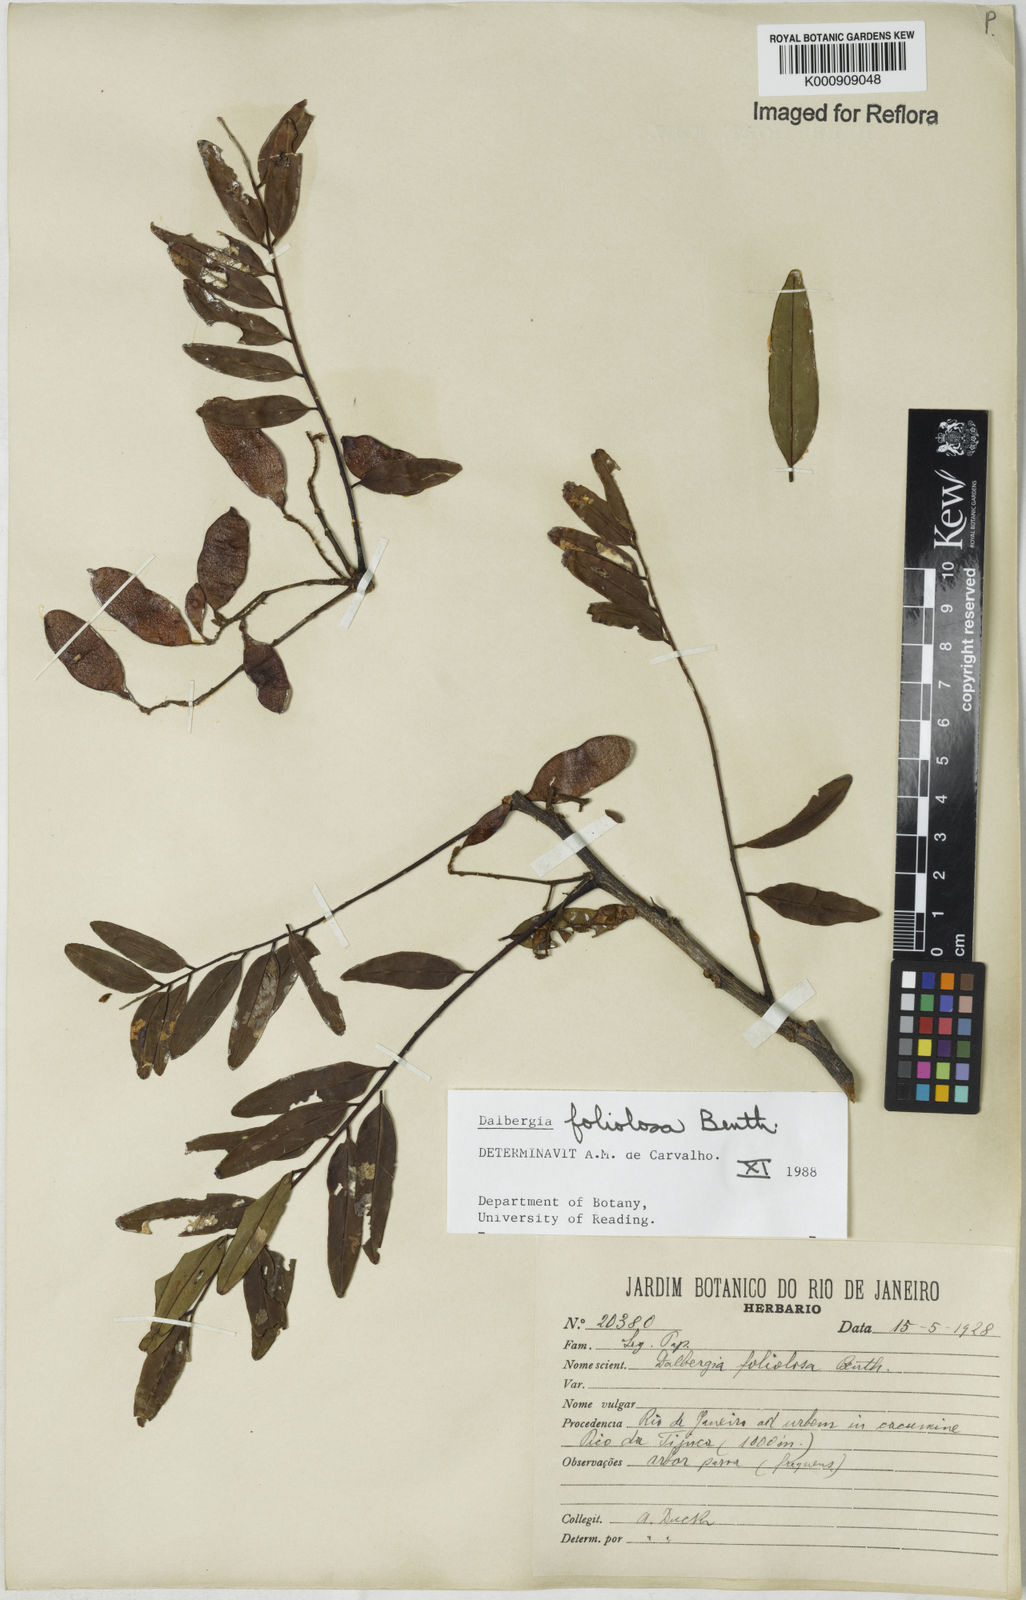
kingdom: Plantae
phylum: Tracheophyta
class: Magnoliopsida
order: Fabales
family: Fabaceae
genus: Dalbergia
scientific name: Dalbergia foliolosa
